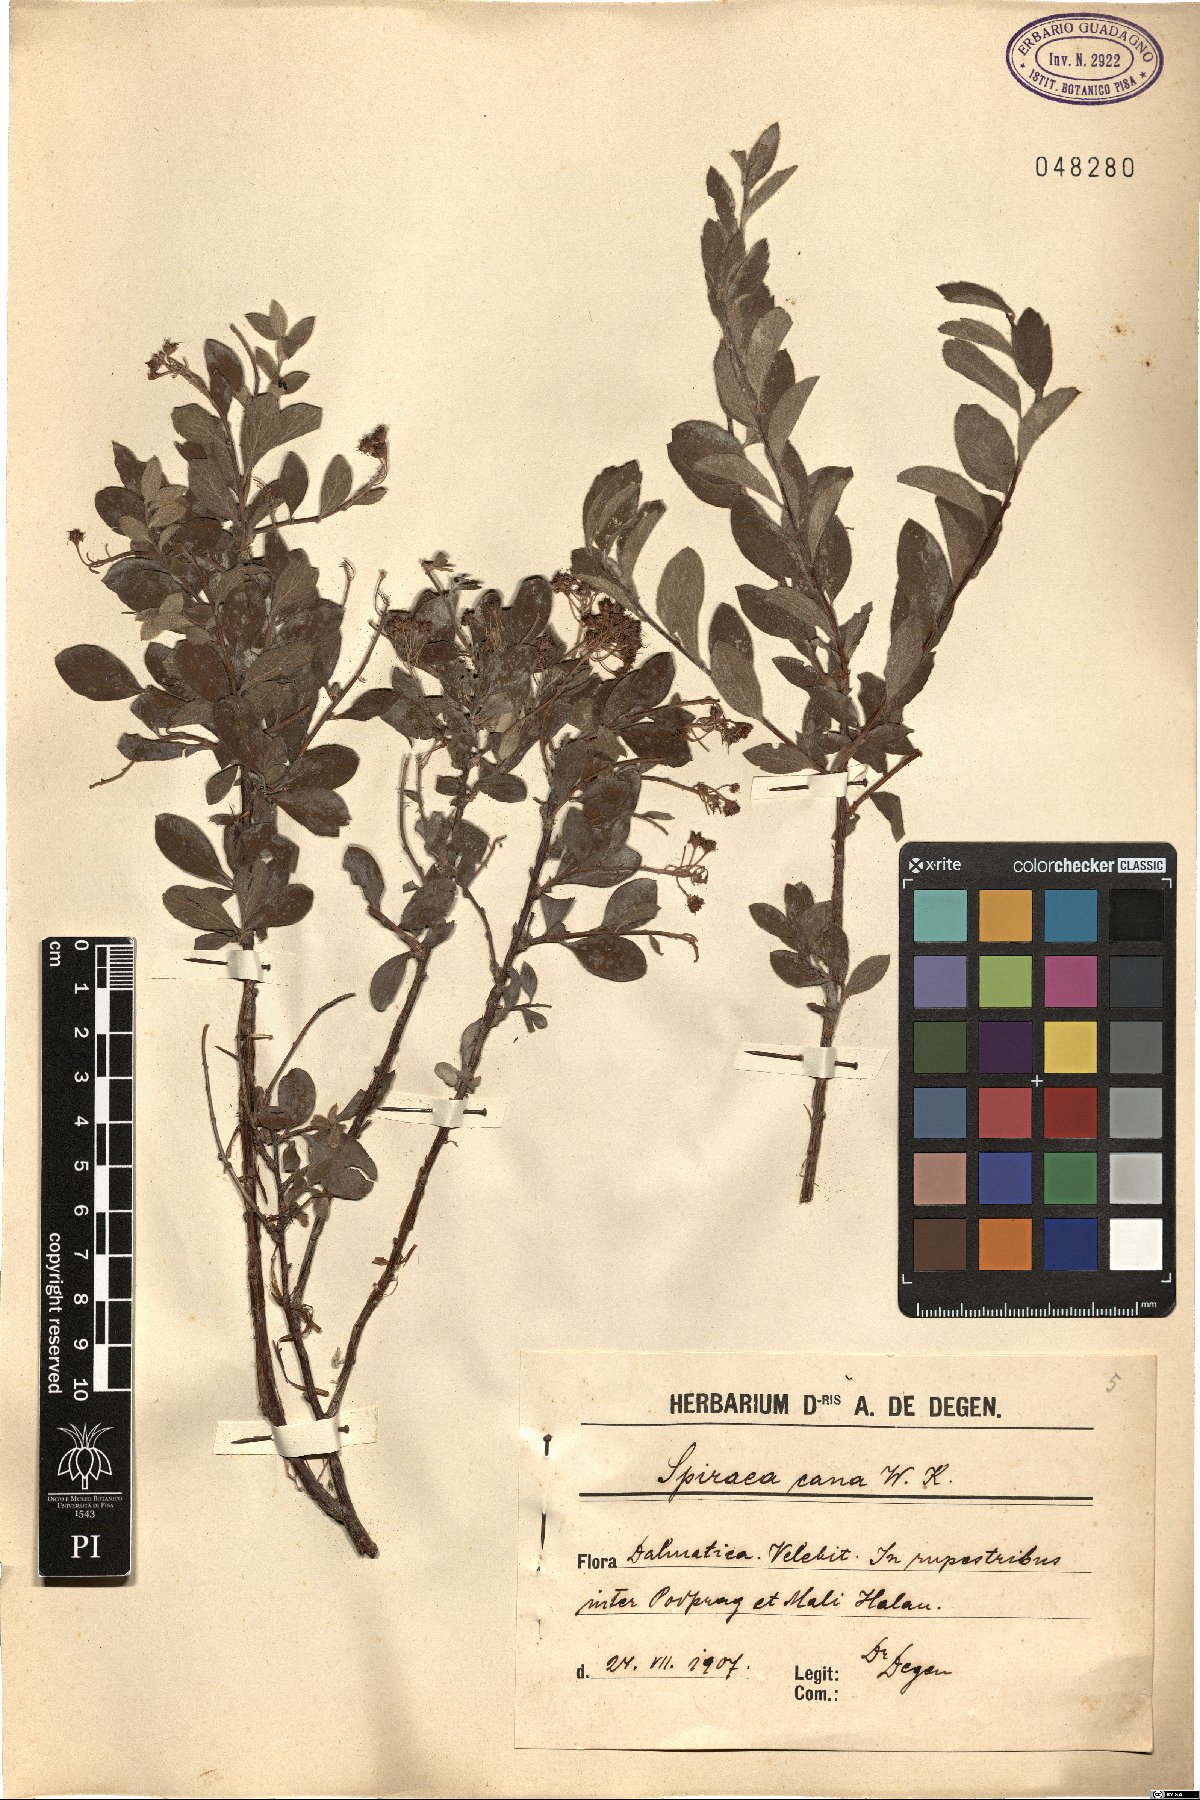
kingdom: Plantae
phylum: Tracheophyta
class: Magnoliopsida
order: Rosales
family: Rosaceae
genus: Spiraea
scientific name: Spiraea cana
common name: Grey meadowsweet
